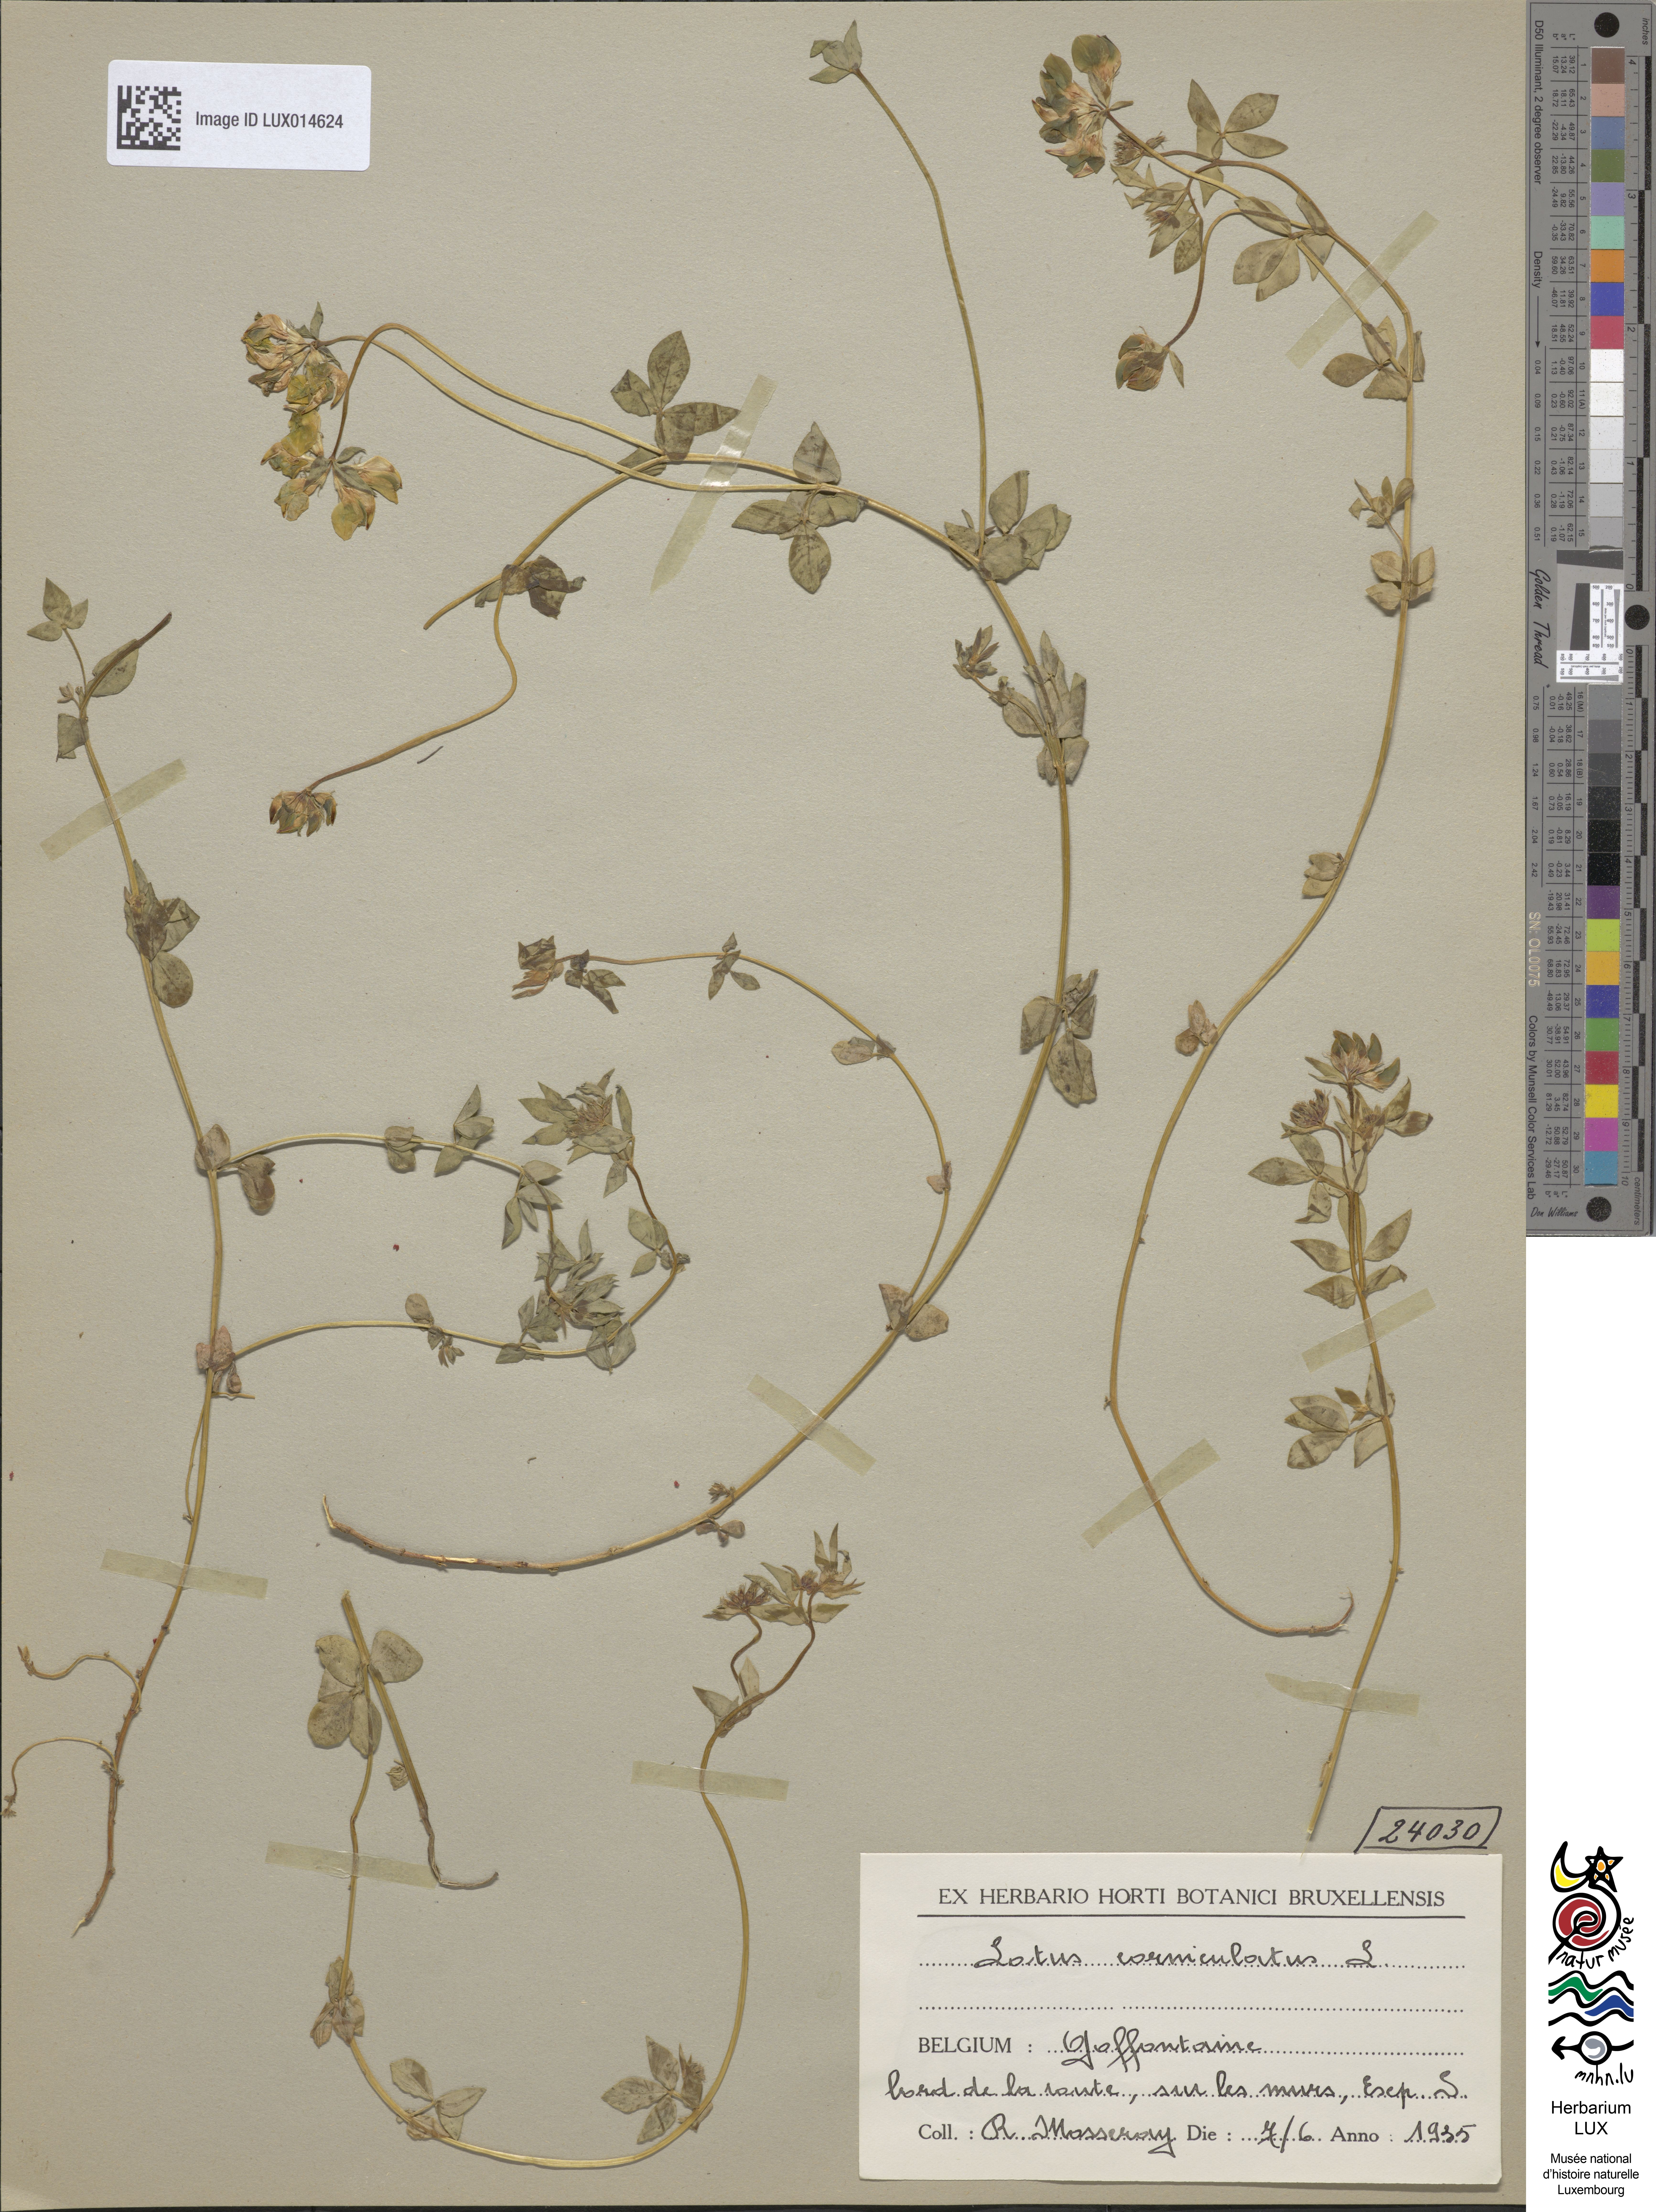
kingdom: Plantae
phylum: Tracheophyta
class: Magnoliopsida
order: Fabales
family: Fabaceae
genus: Lotus
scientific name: Lotus corniculatus
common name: Common bird's-foot-trefoil
